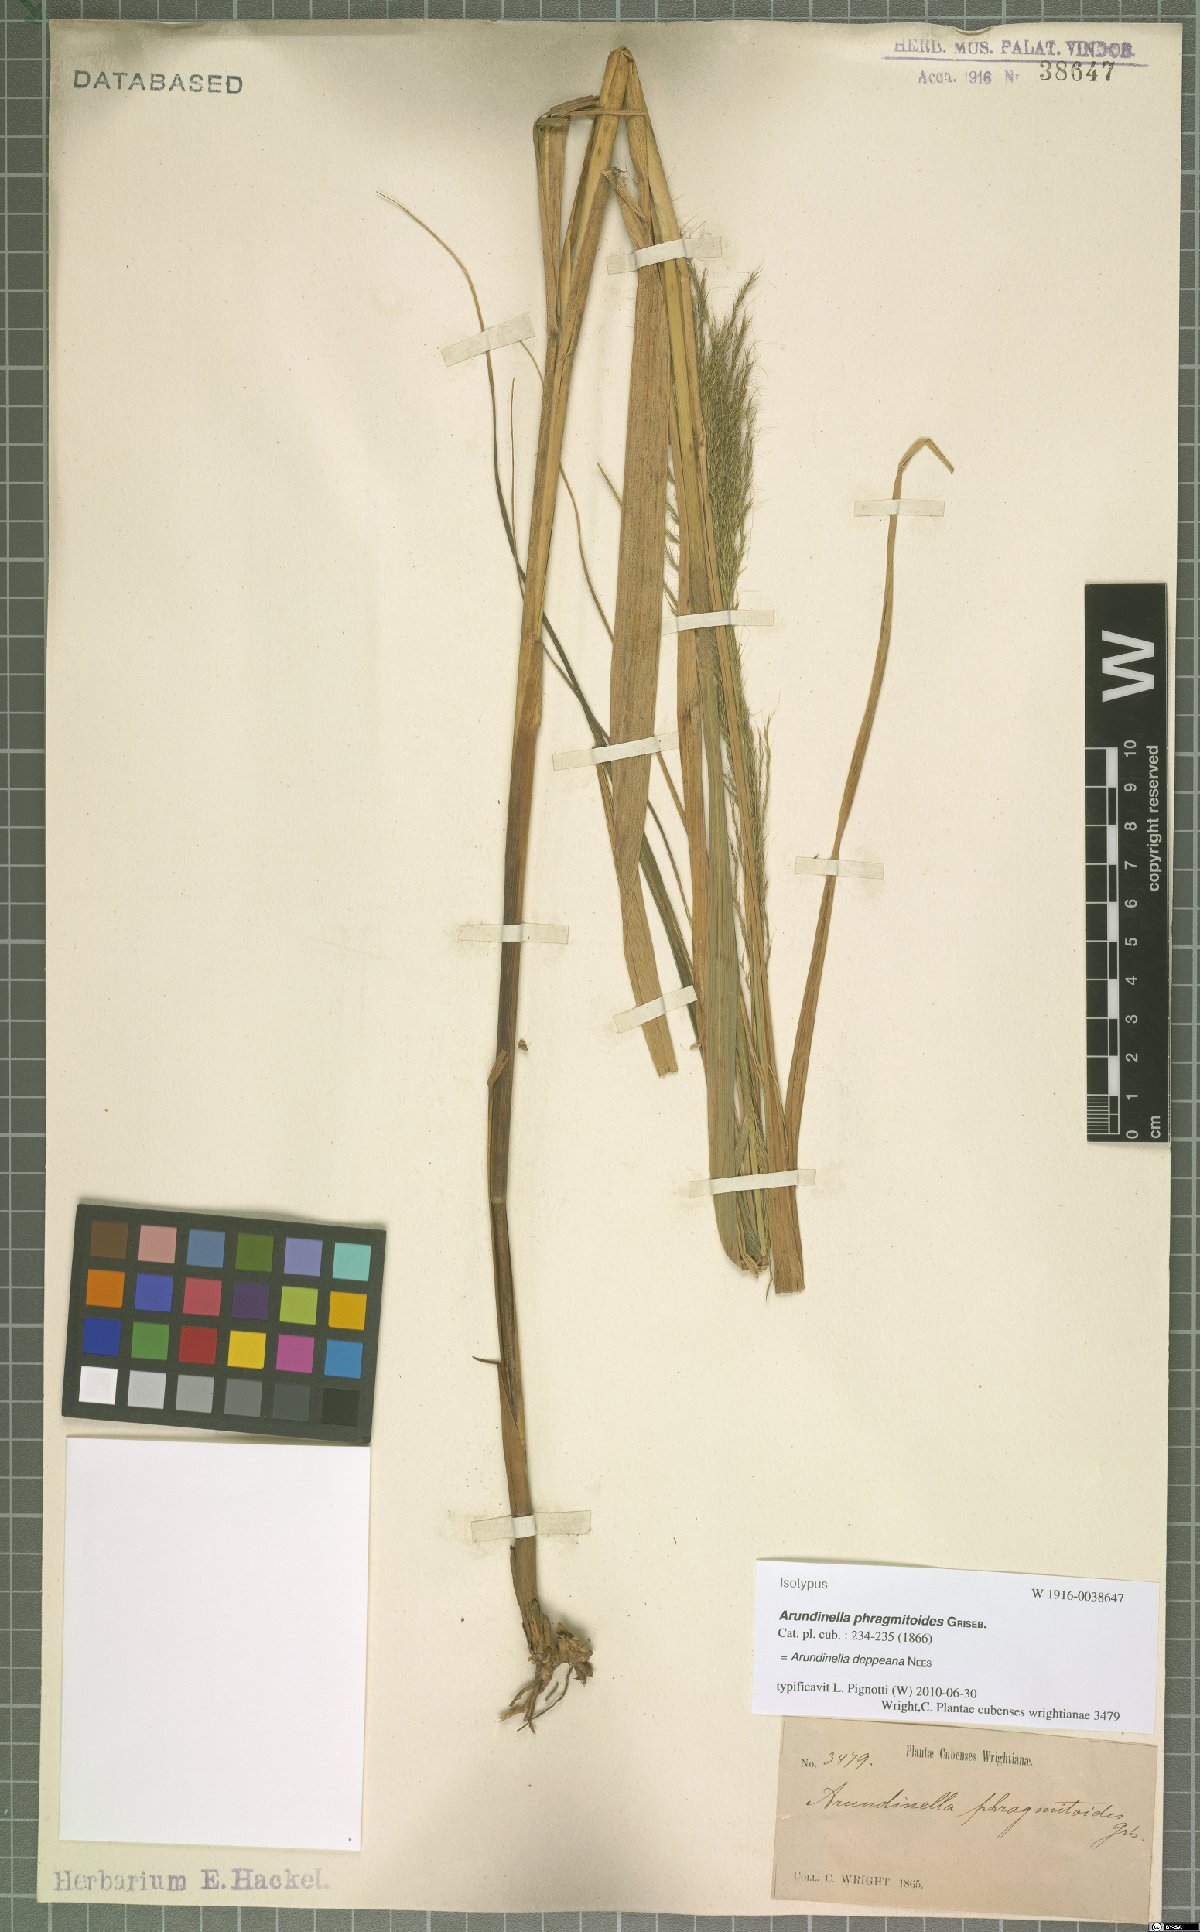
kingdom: Plantae
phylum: Tracheophyta
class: Liliopsida
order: Poales
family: Poaceae
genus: Arundinella
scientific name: Arundinella deppeana
